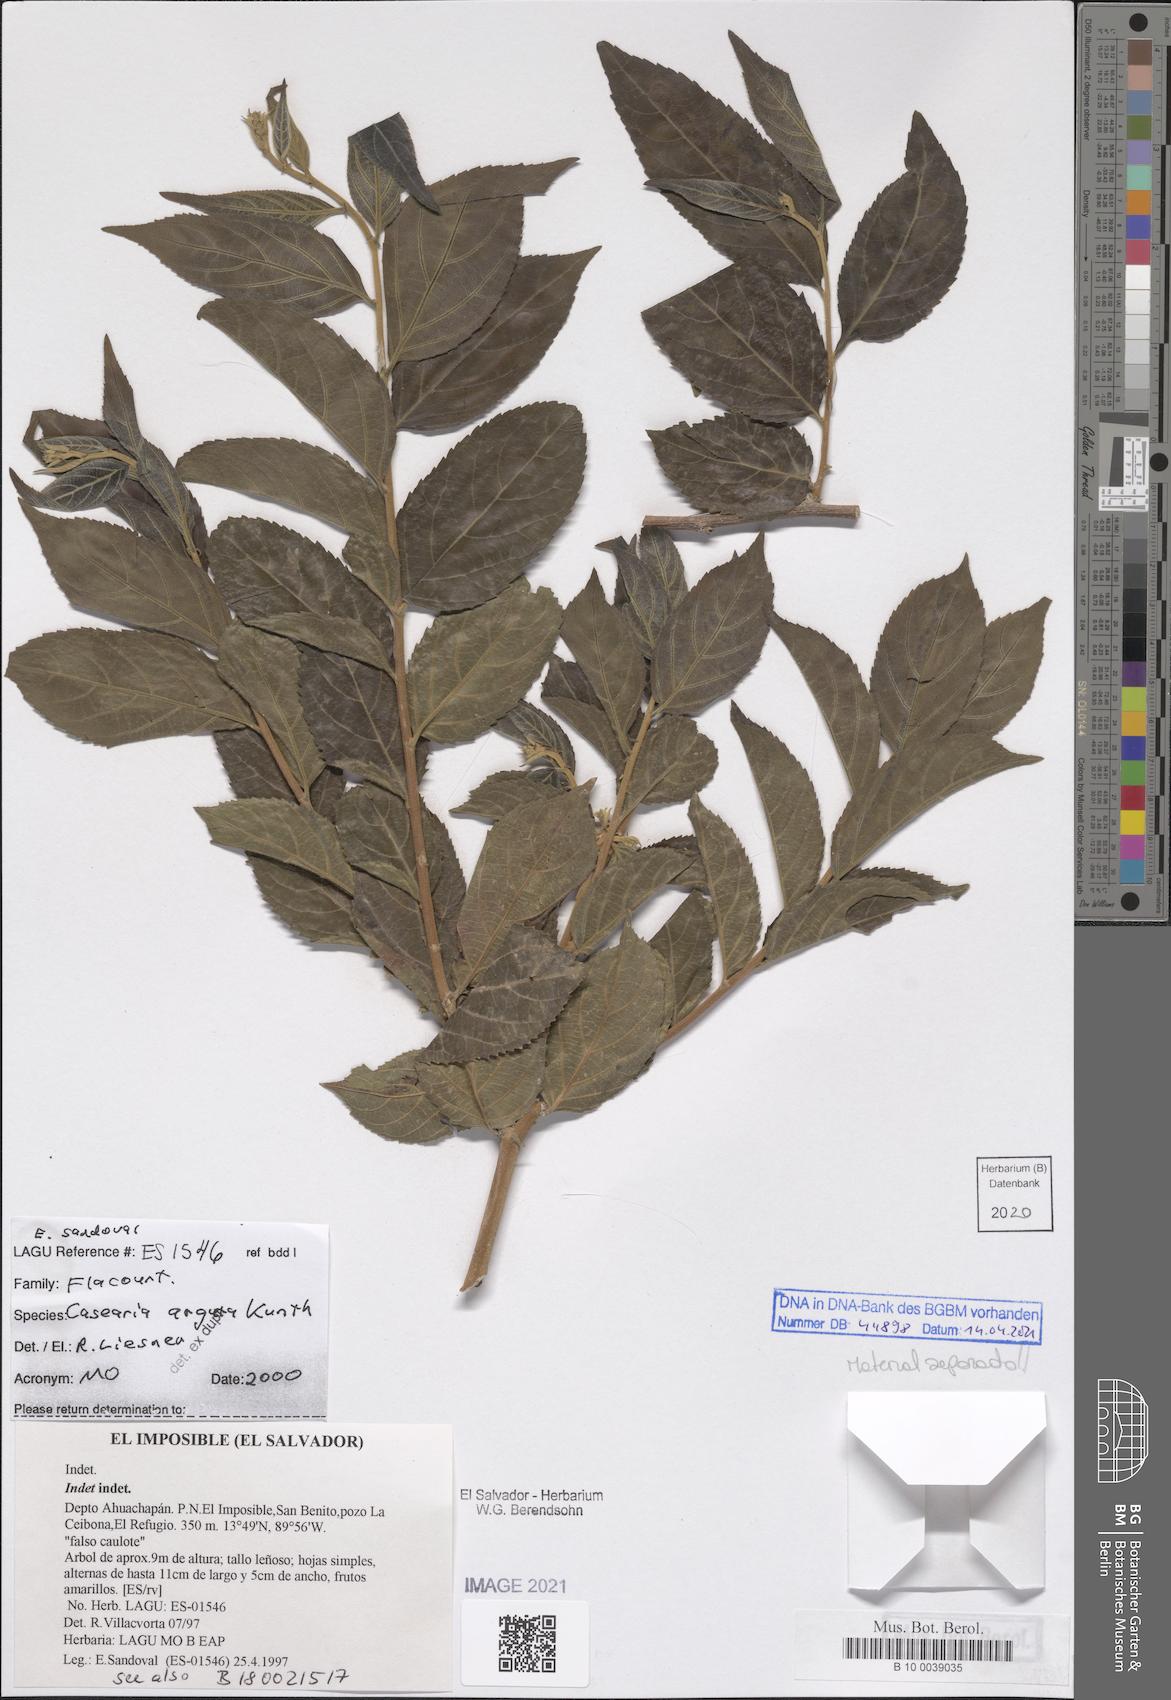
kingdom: Plantae
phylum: Tracheophyta
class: Magnoliopsida
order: Malpighiales
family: Salicaceae
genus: Casearia
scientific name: Casearia arguta
